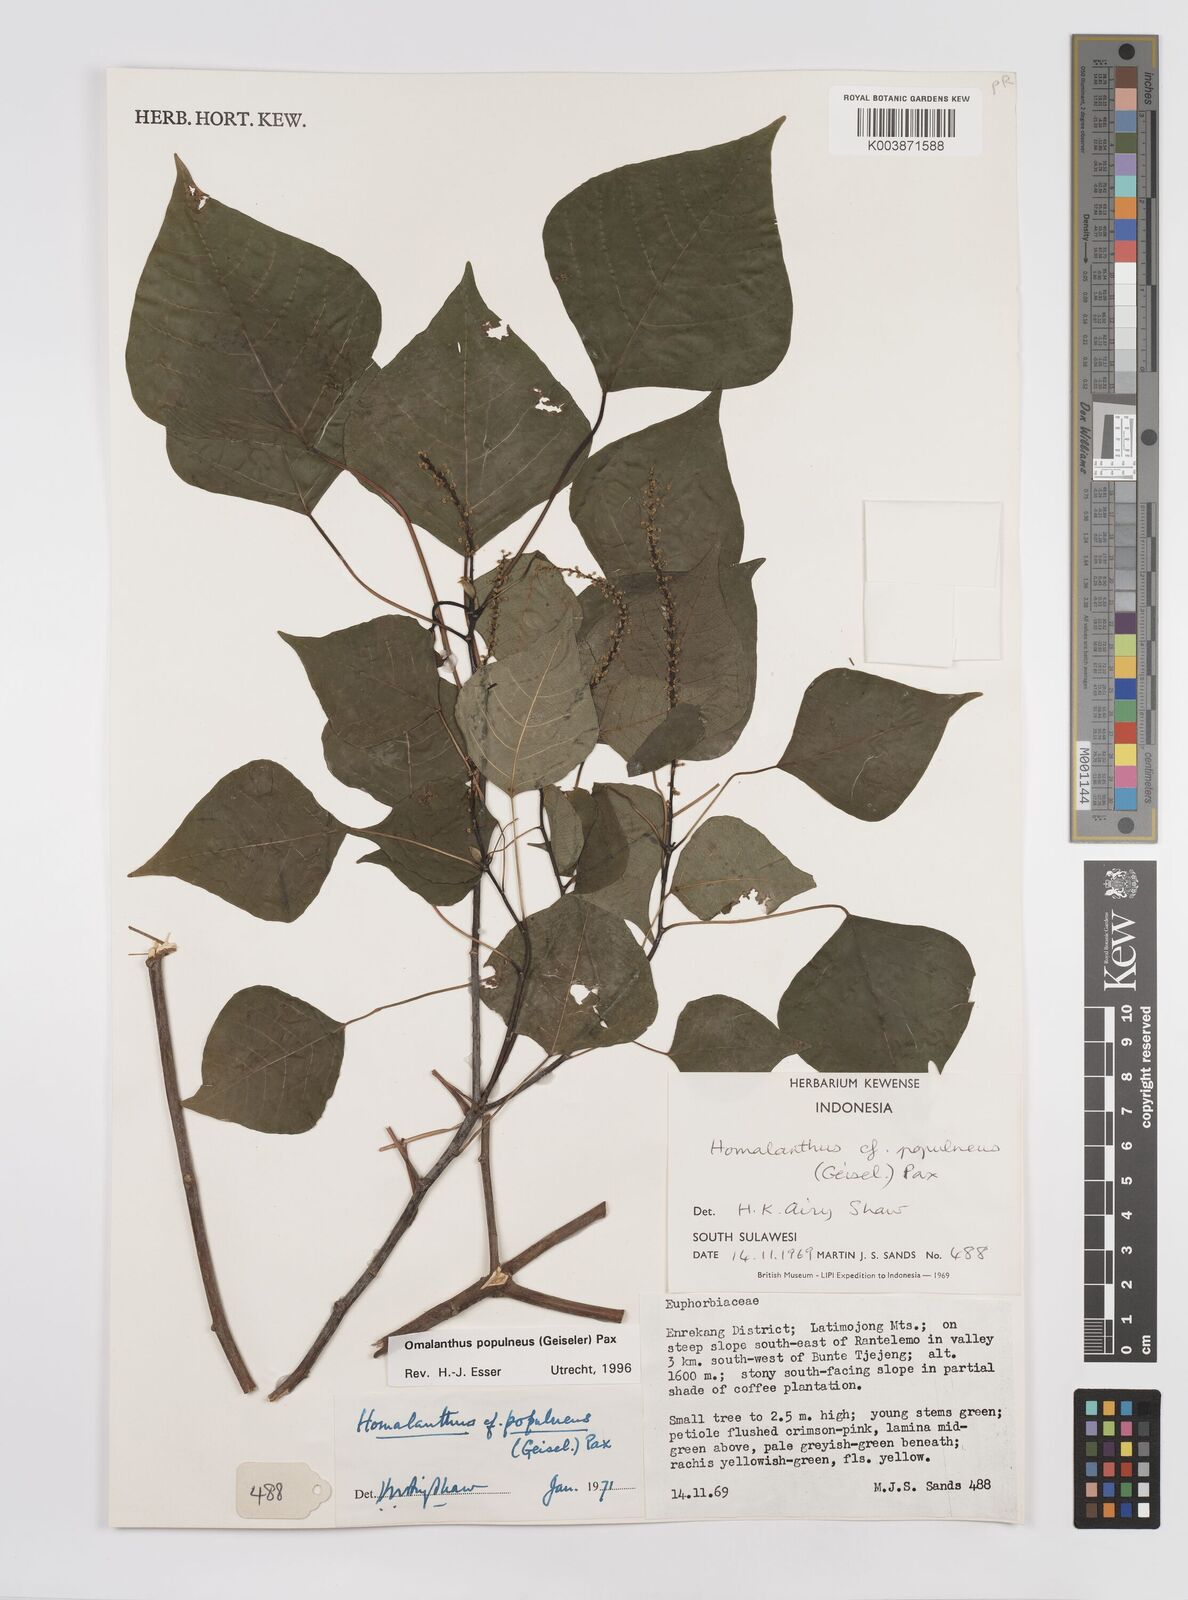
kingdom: Plantae
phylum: Tracheophyta
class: Magnoliopsida
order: Malpighiales
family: Euphorbiaceae
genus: Homalanthus
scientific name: Homalanthus populneus
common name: Spurge
